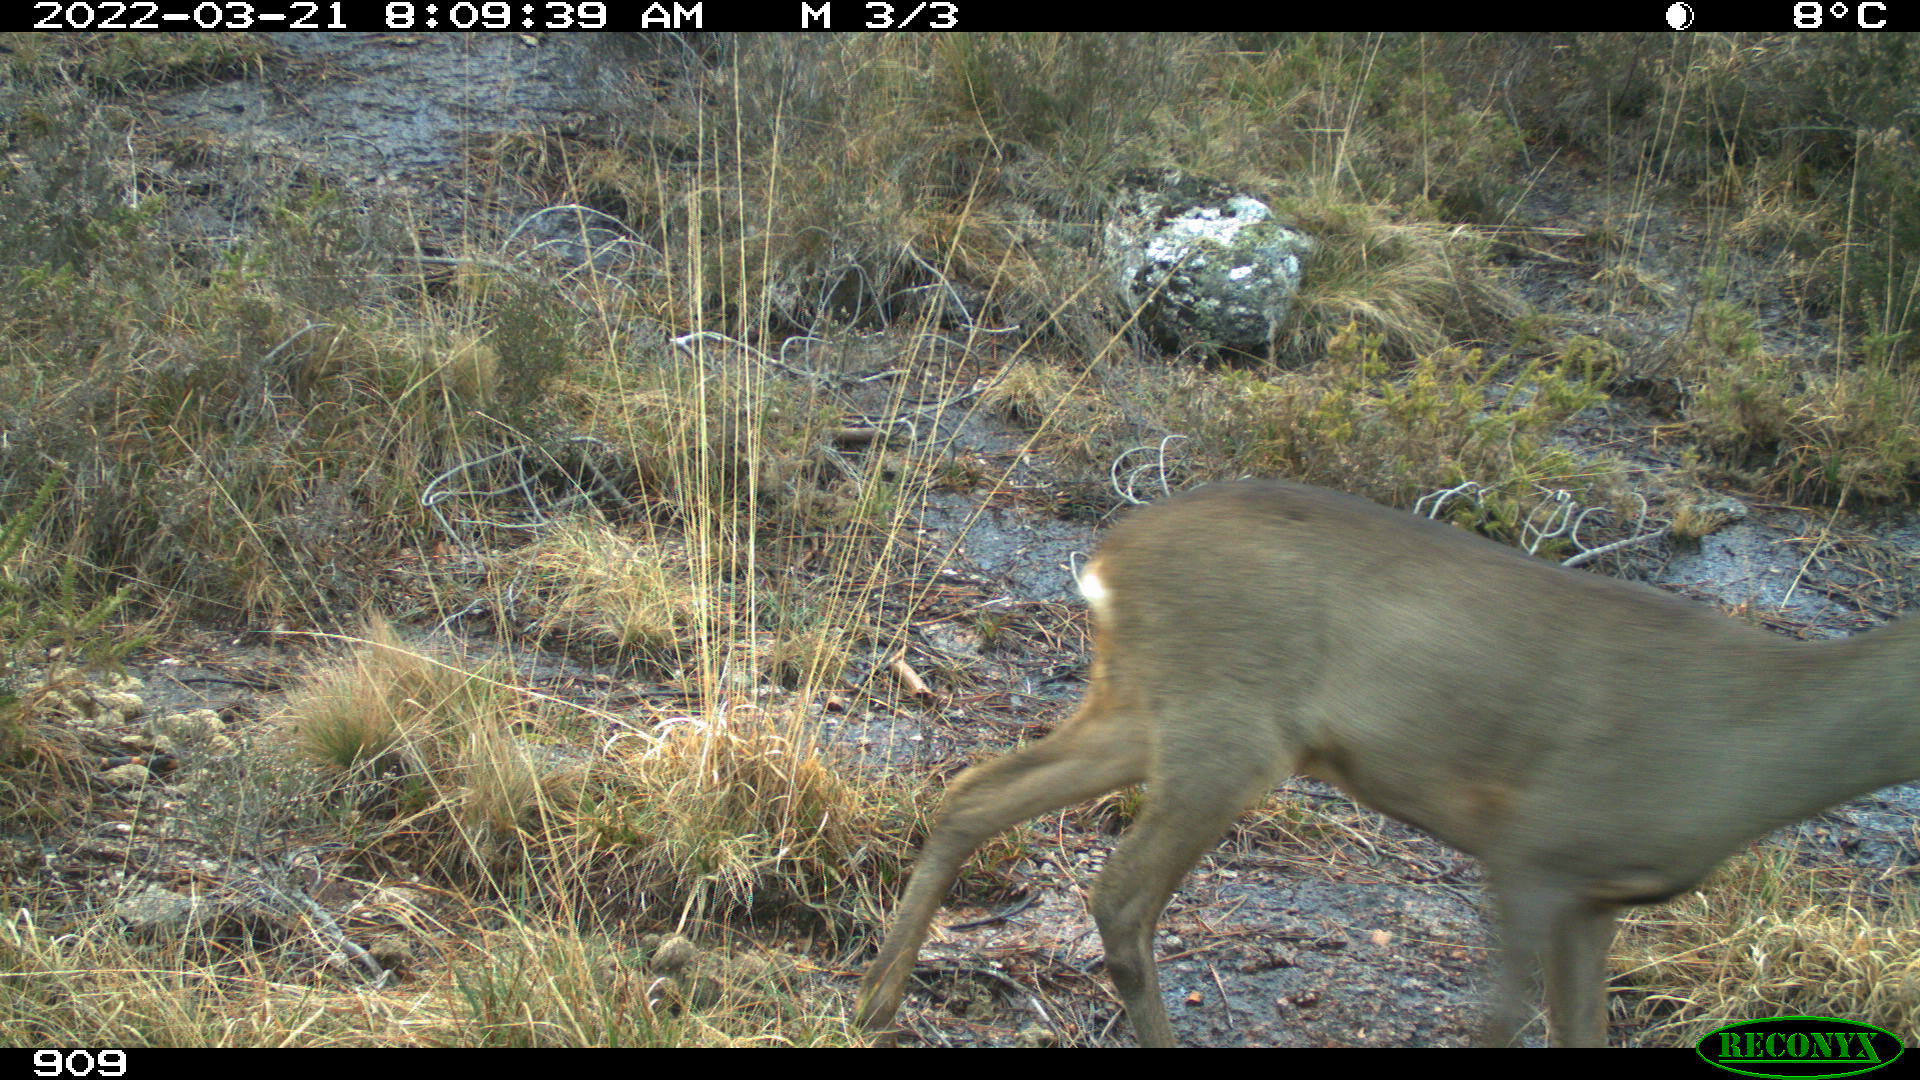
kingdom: Animalia
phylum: Chordata
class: Mammalia
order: Artiodactyla
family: Cervidae
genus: Capreolus
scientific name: Capreolus capreolus
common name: Western roe deer
